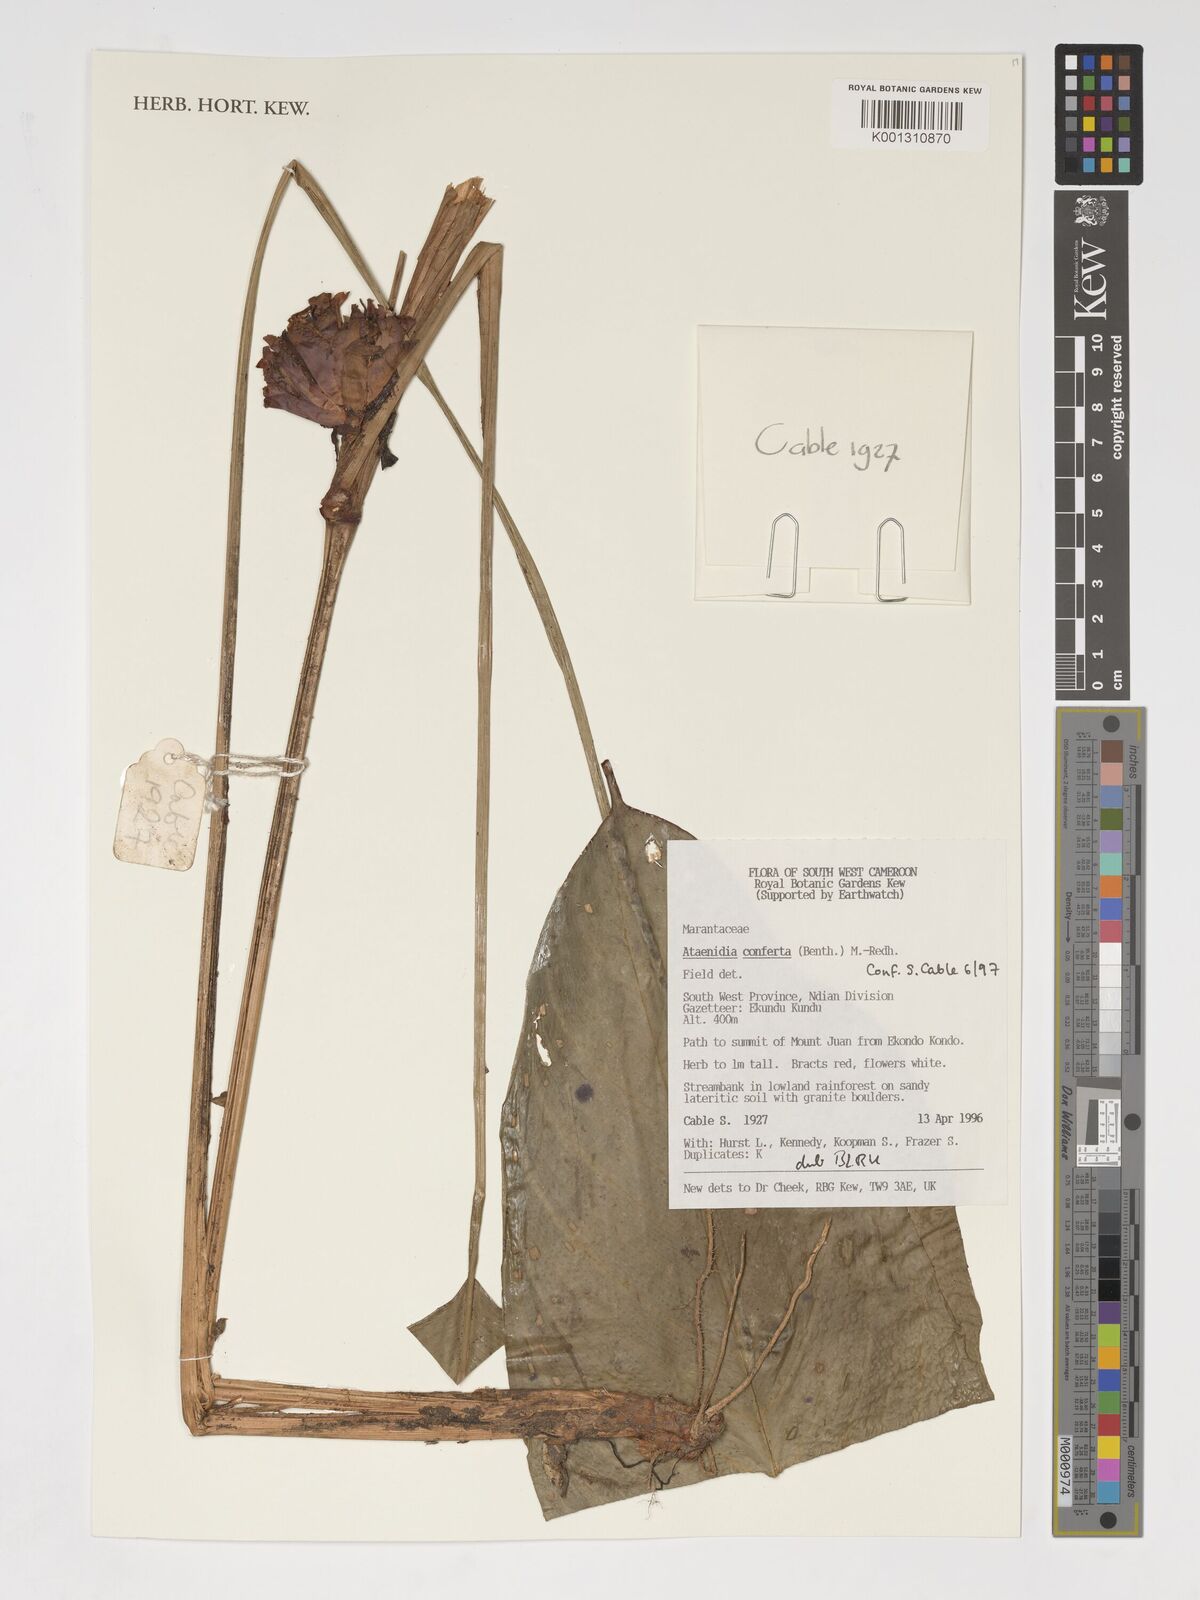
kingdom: Plantae
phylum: Tracheophyta
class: Liliopsida
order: Zingiberales
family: Marantaceae
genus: Marantochloa
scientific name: Marantochloa conferta
